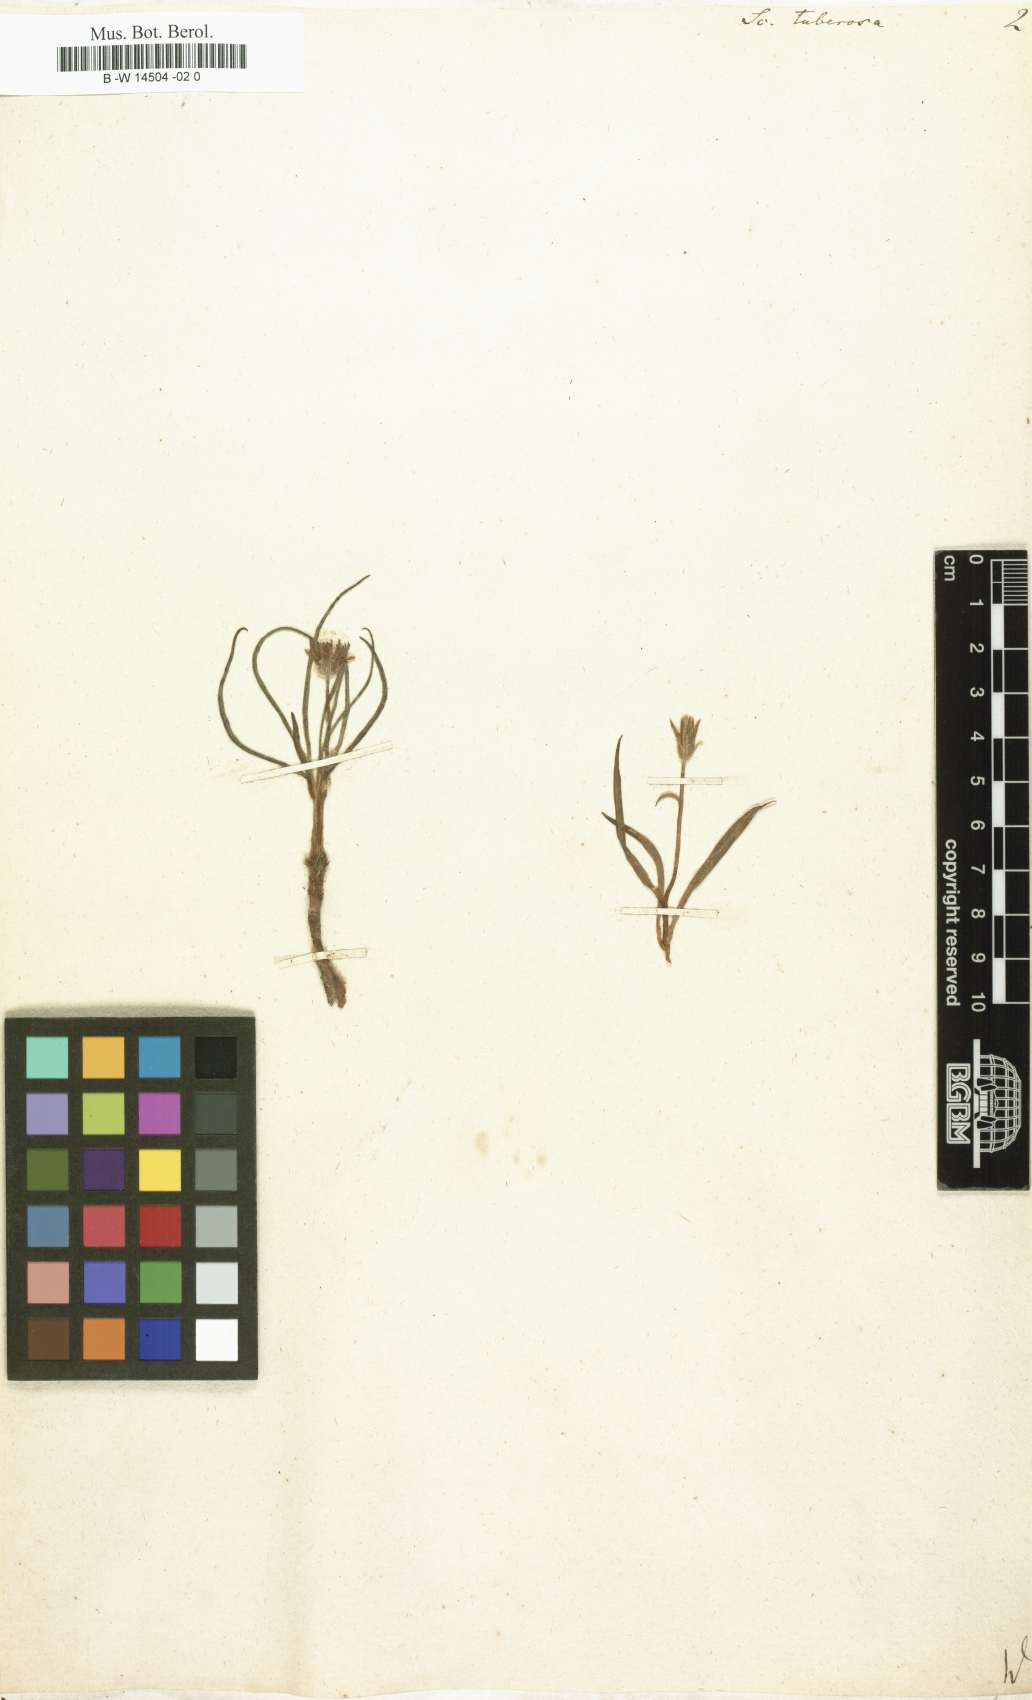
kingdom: Plantae
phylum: Tracheophyta
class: Magnoliopsida
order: Asterales
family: Asteraceae
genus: Scorzonera
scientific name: Scorzonera tuberosa
